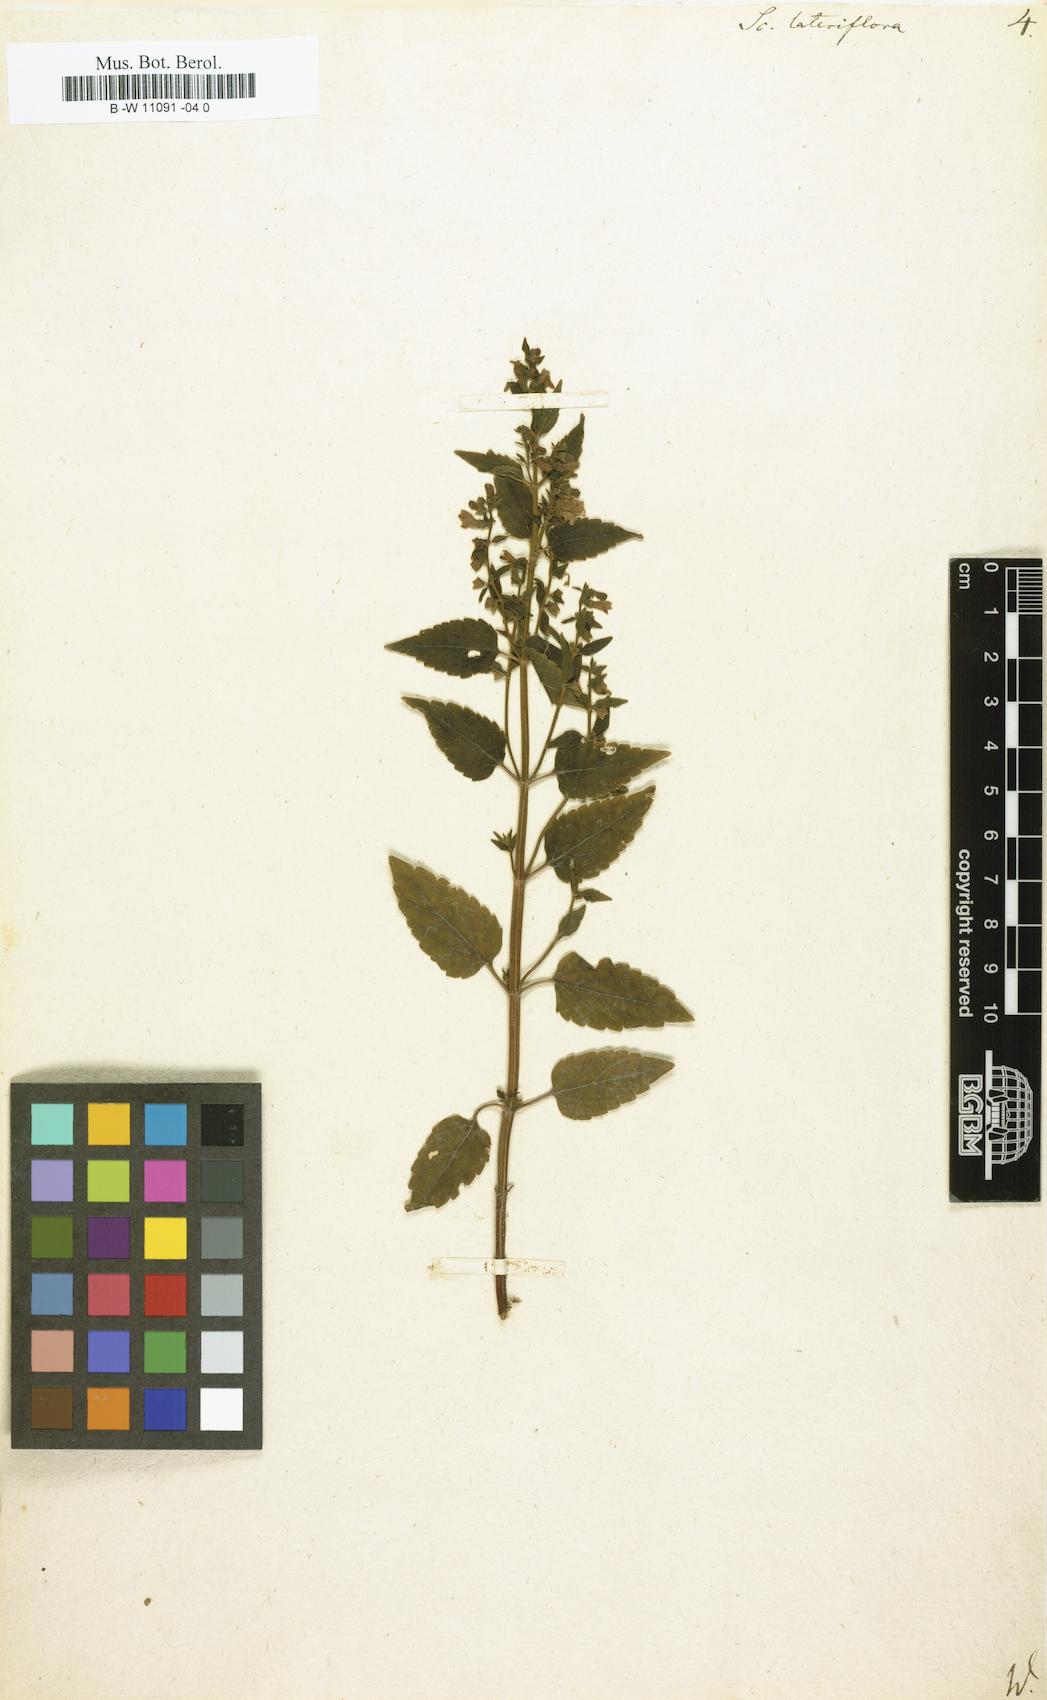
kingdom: Plantae
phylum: Tracheophyta
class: Magnoliopsida
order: Lamiales
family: Lamiaceae
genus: Scutellaria
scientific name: Scutellaria lateriflora
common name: Blue skullcap
